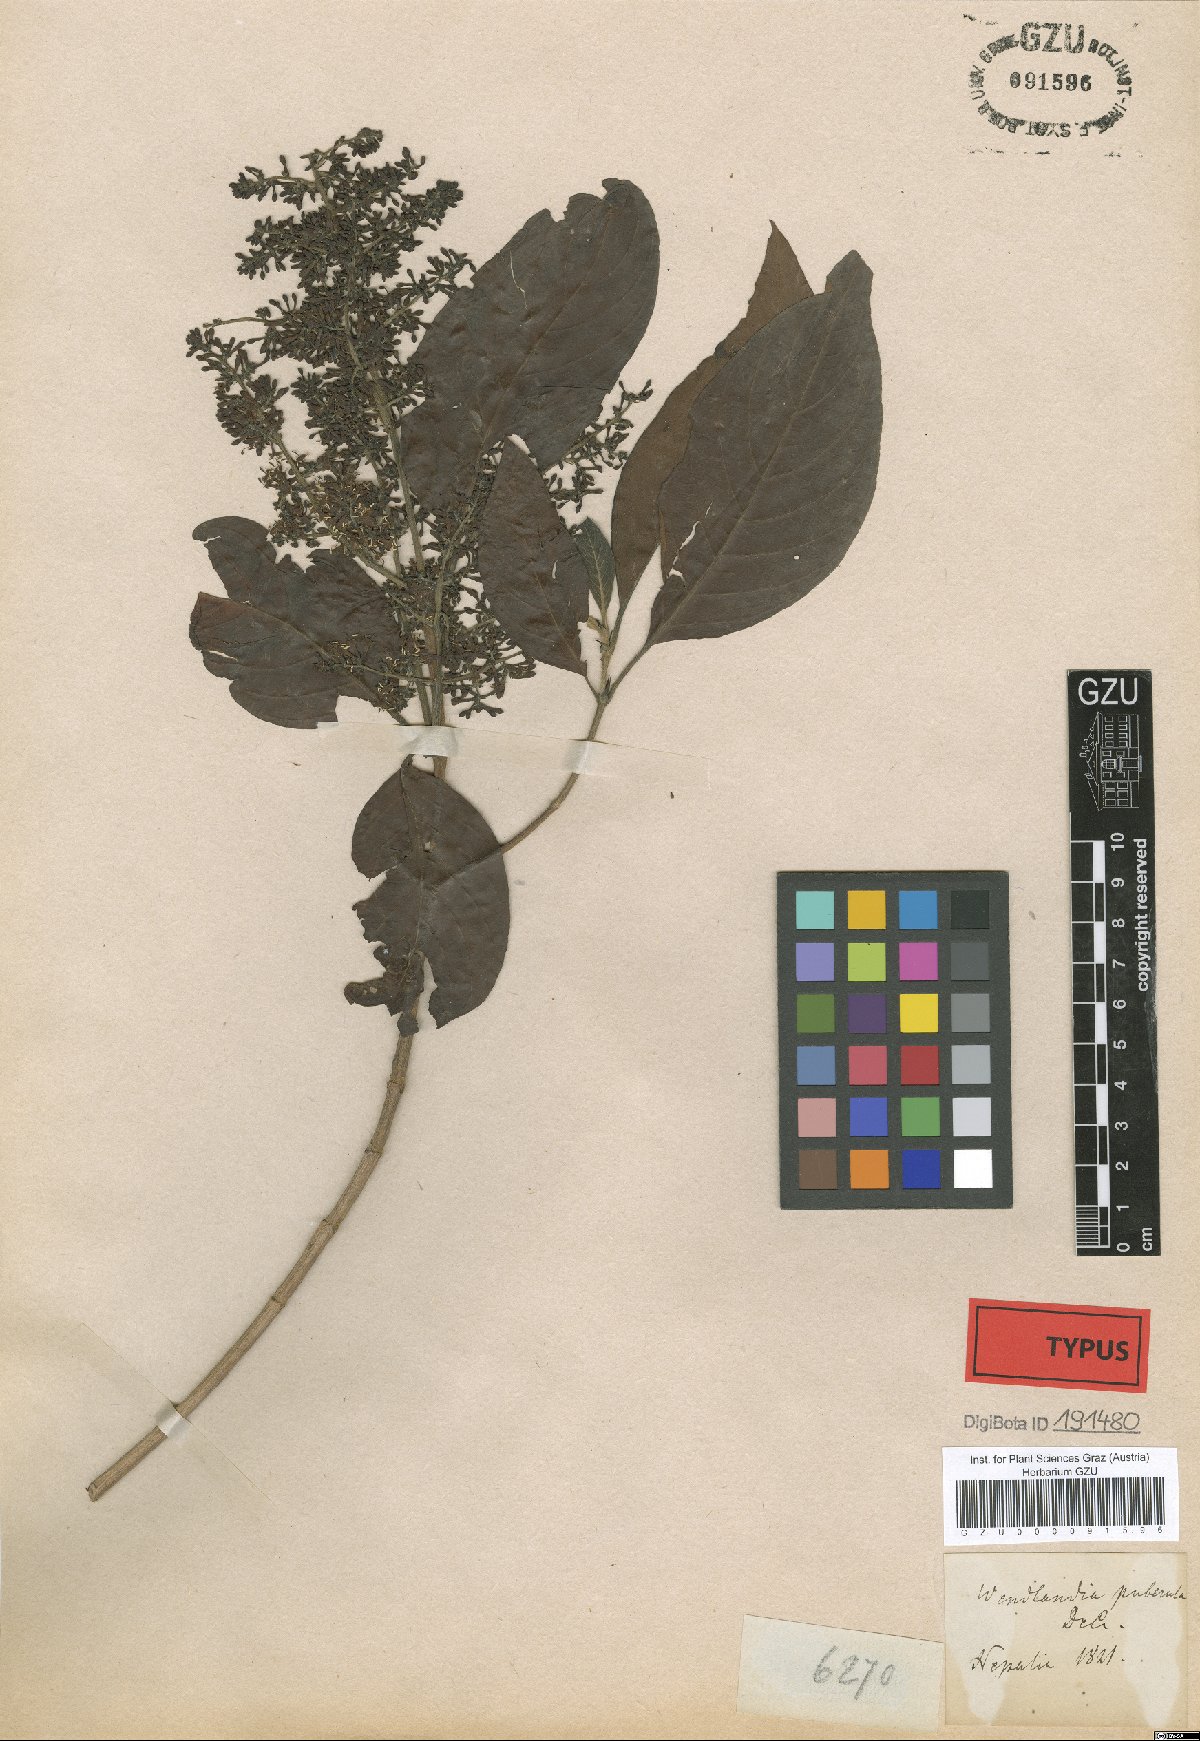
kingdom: Plantae
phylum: Tracheophyta
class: Magnoliopsida
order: Gentianales
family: Rubiaceae
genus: Wendlandia
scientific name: Wendlandia puberula
